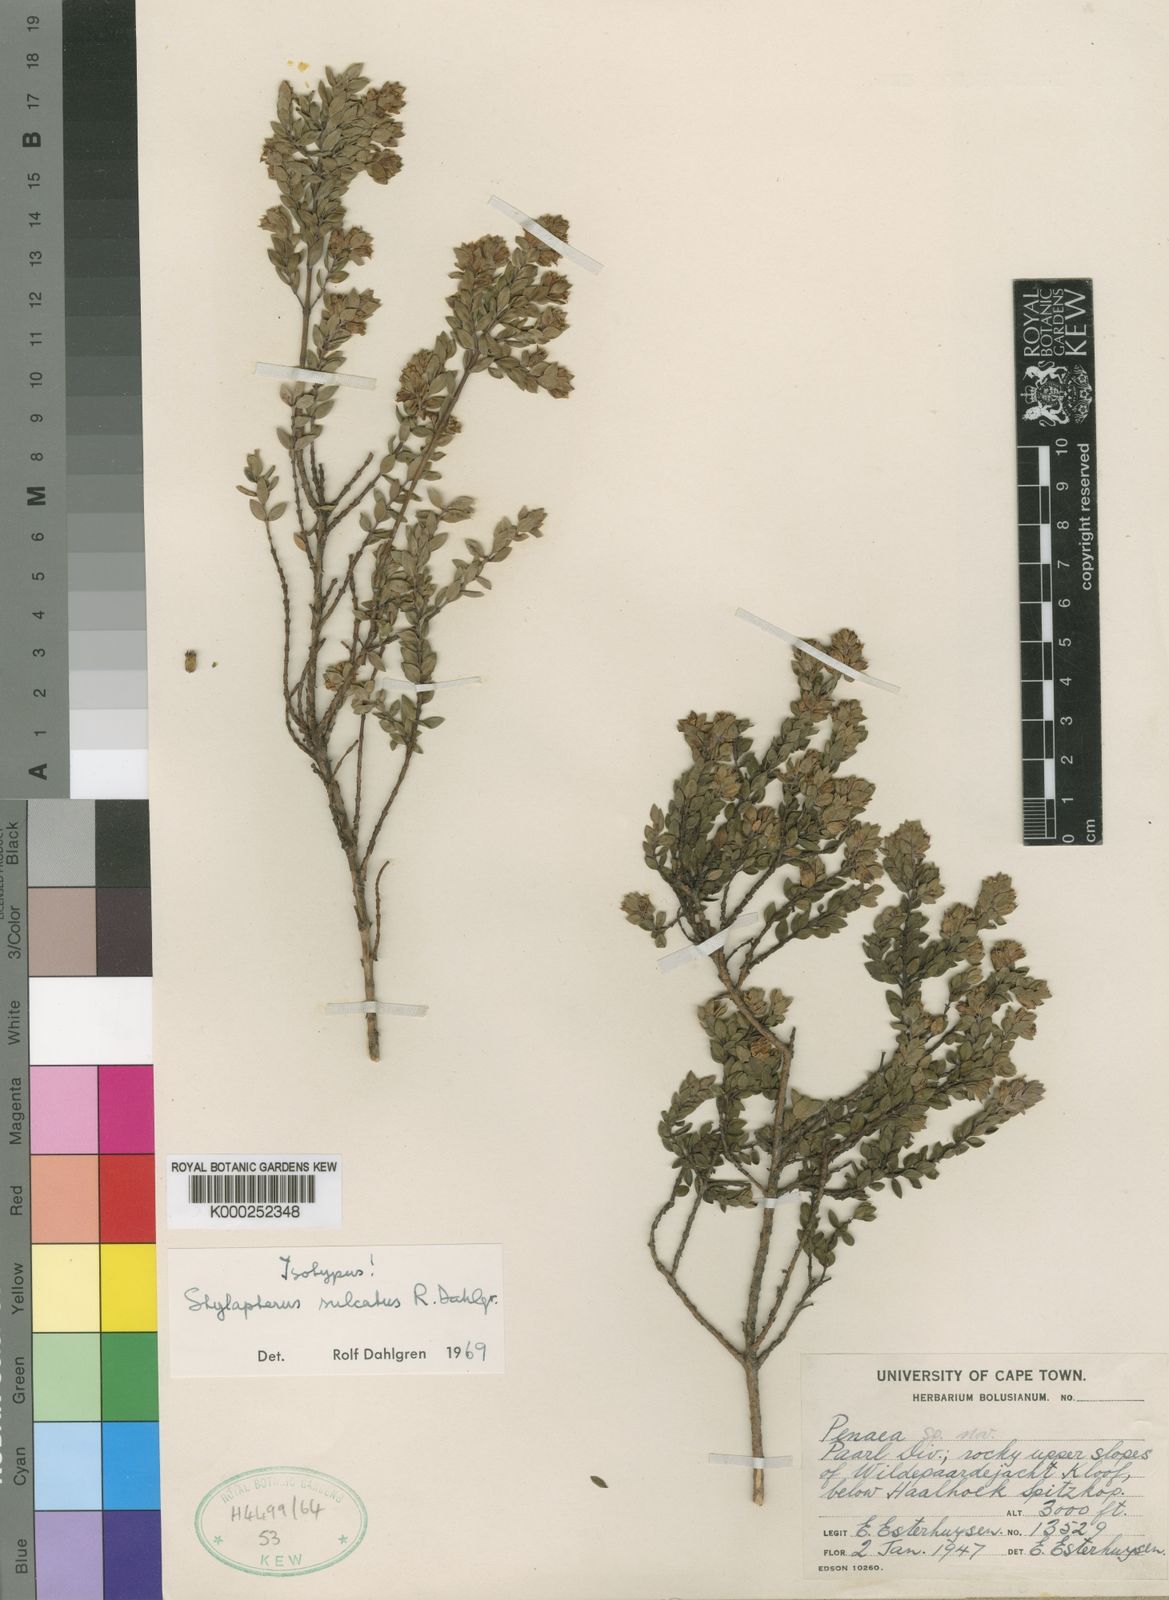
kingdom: Plantae
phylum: Tracheophyta
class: Magnoliopsida
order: Myrtales
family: Penaeaceae
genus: Stylapterus
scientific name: Stylapterus sulcatus
